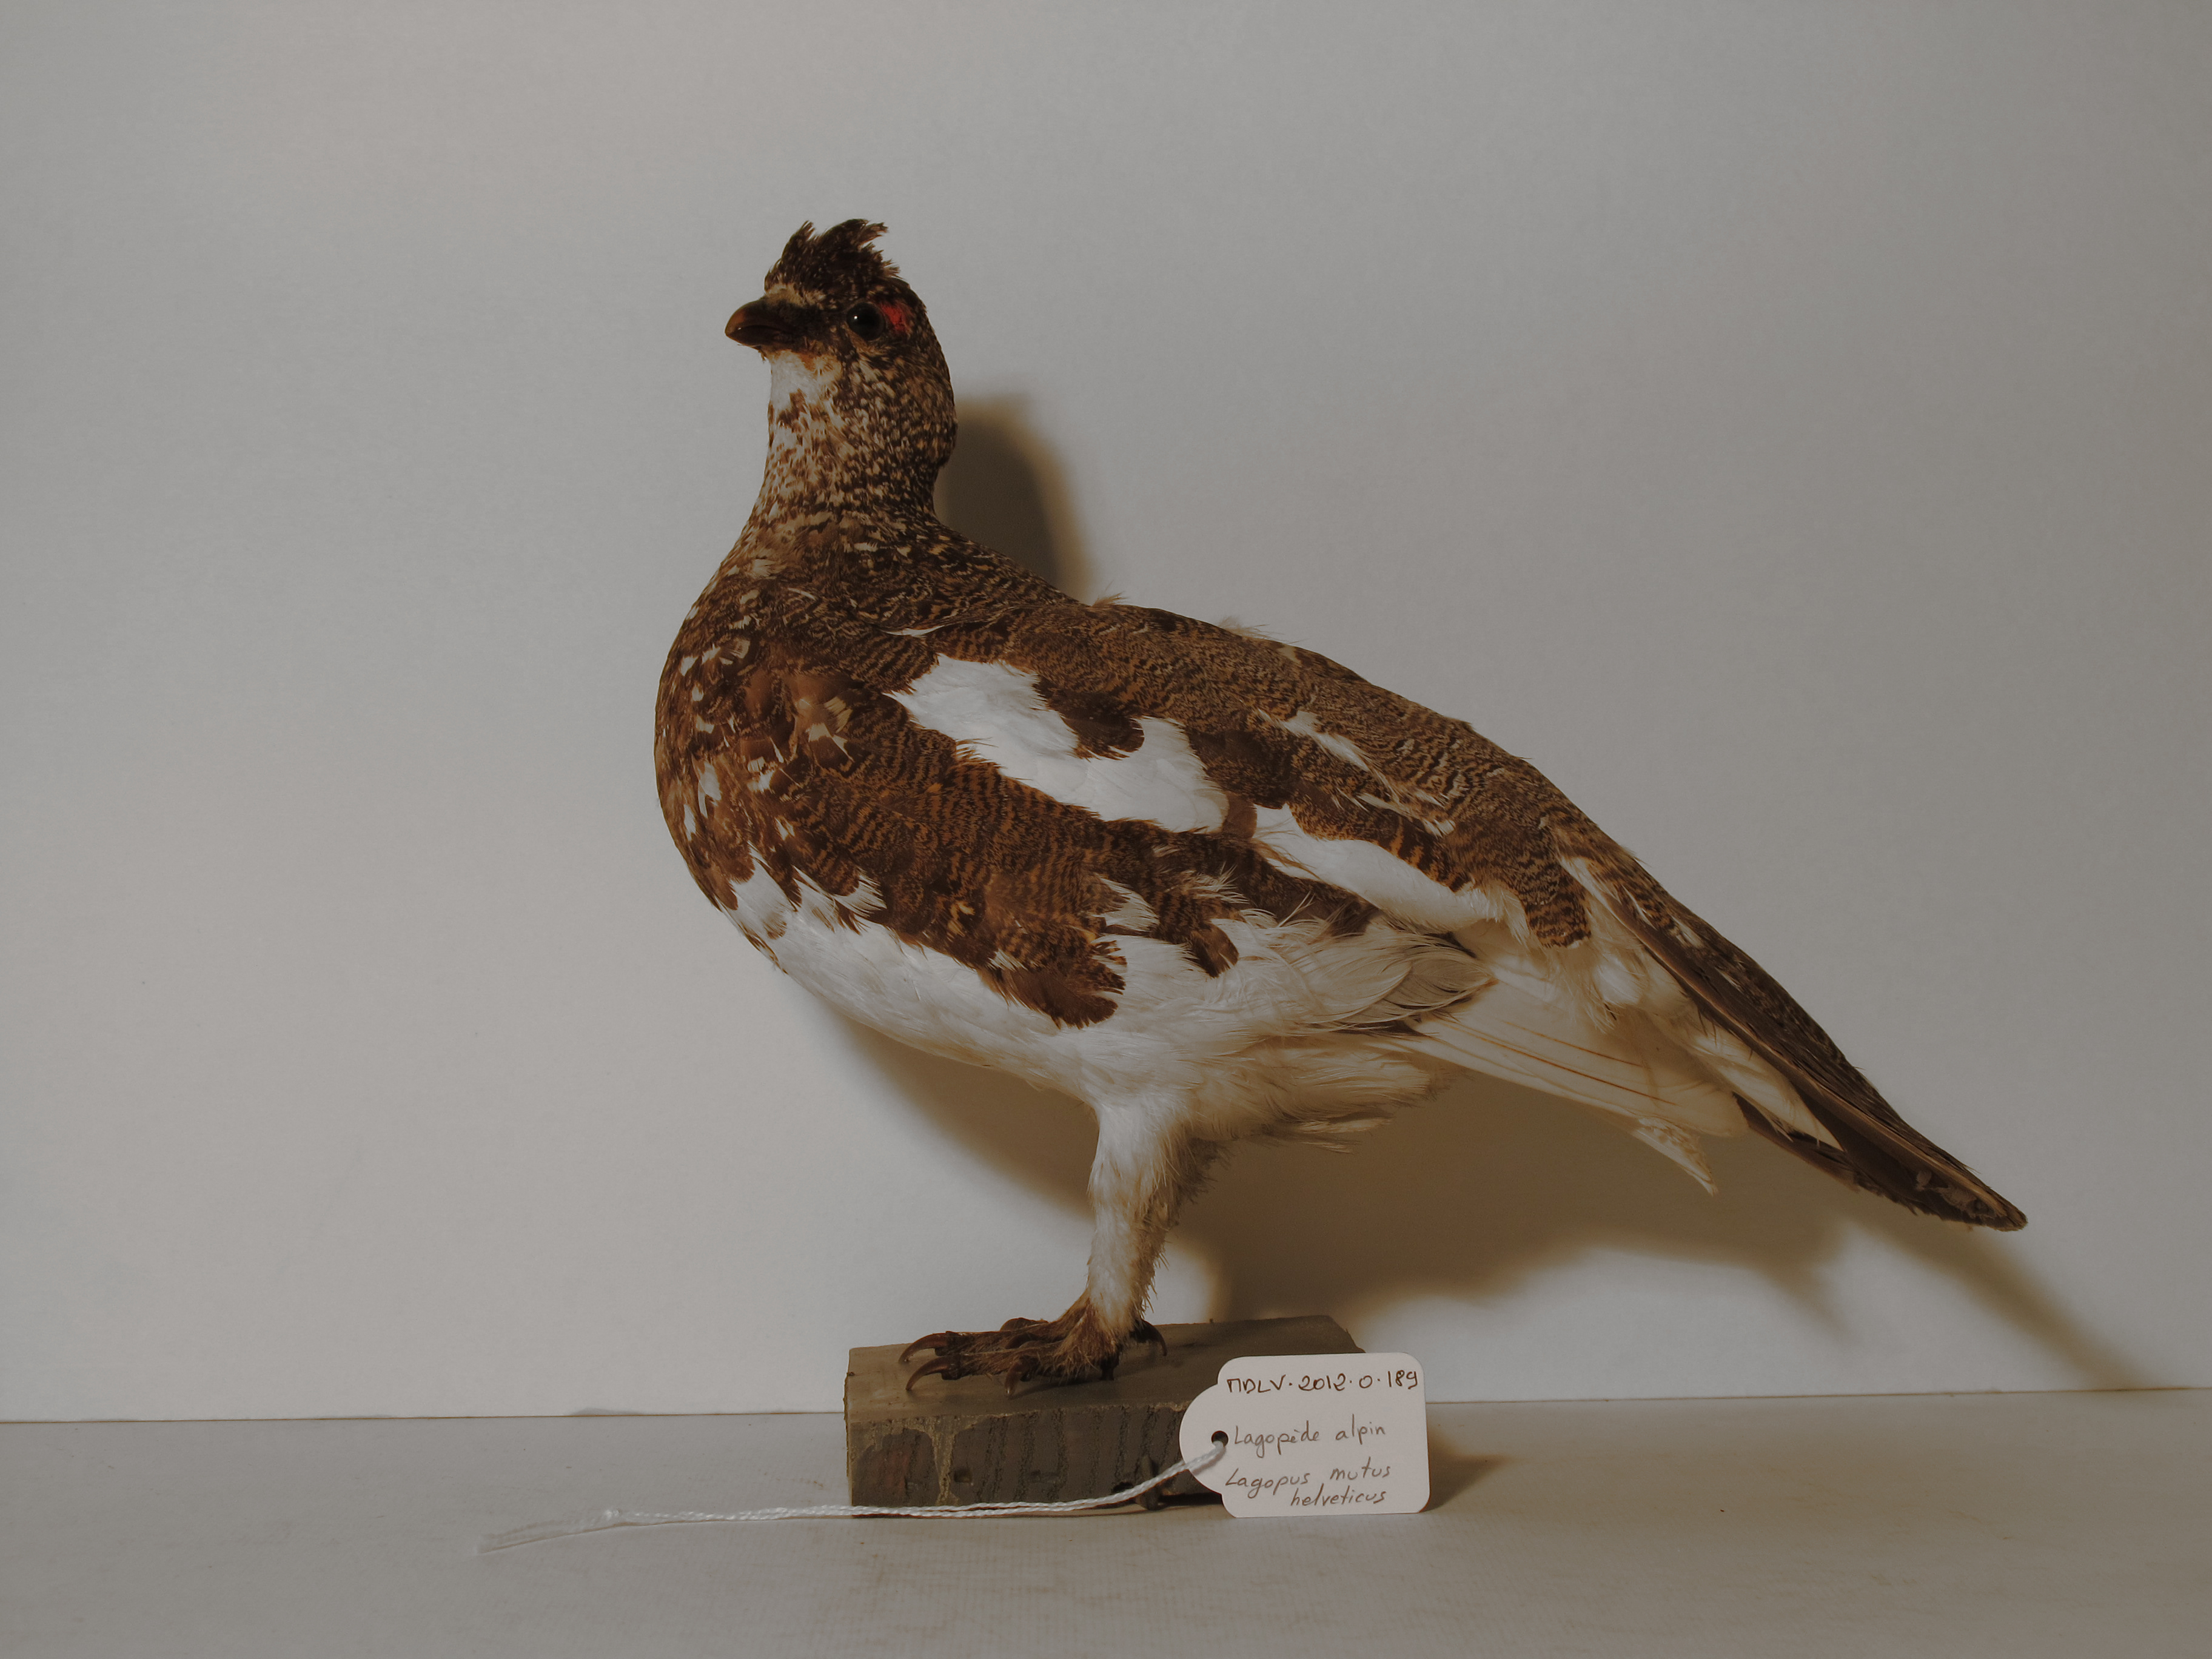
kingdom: Animalia
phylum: Chordata
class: Aves
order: Galliformes
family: Phasianidae
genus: Lagopus
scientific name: Lagopus muta
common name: Rock Ptarmigan
